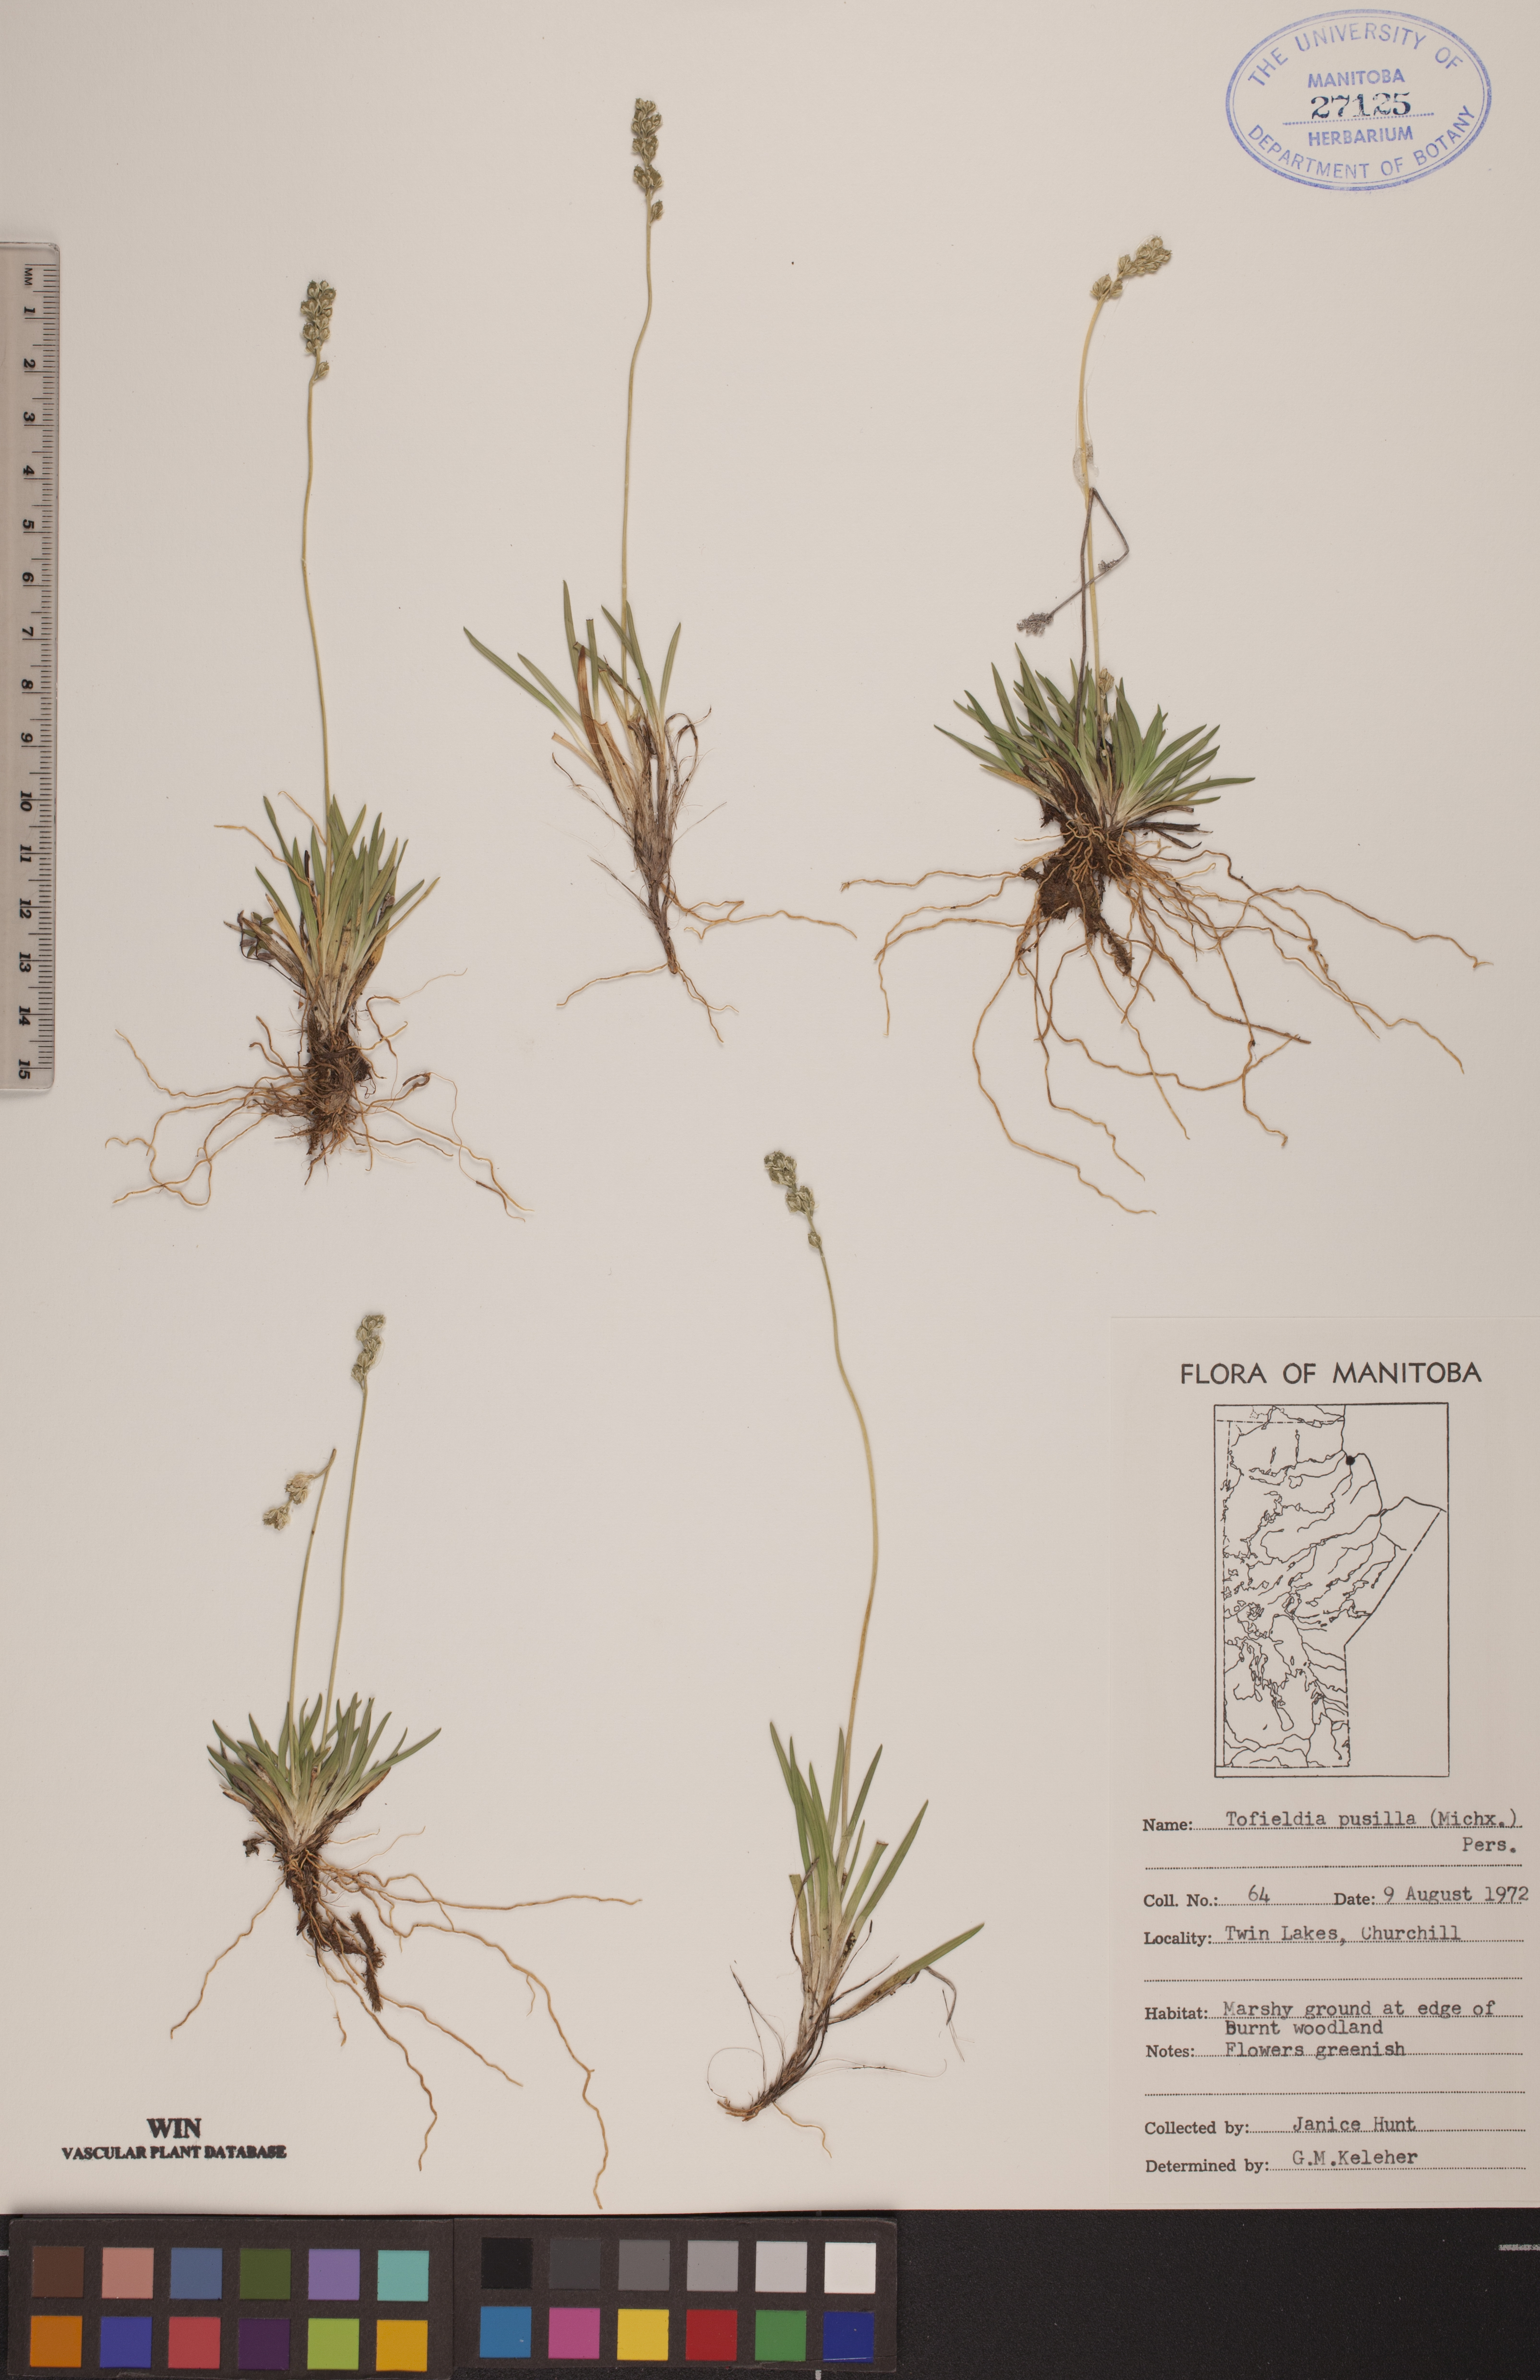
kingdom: Plantae
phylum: Tracheophyta
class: Liliopsida
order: Alismatales
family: Tofieldiaceae
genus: Tofieldia
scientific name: Tofieldia pusilla
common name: Scottish false asphodel
